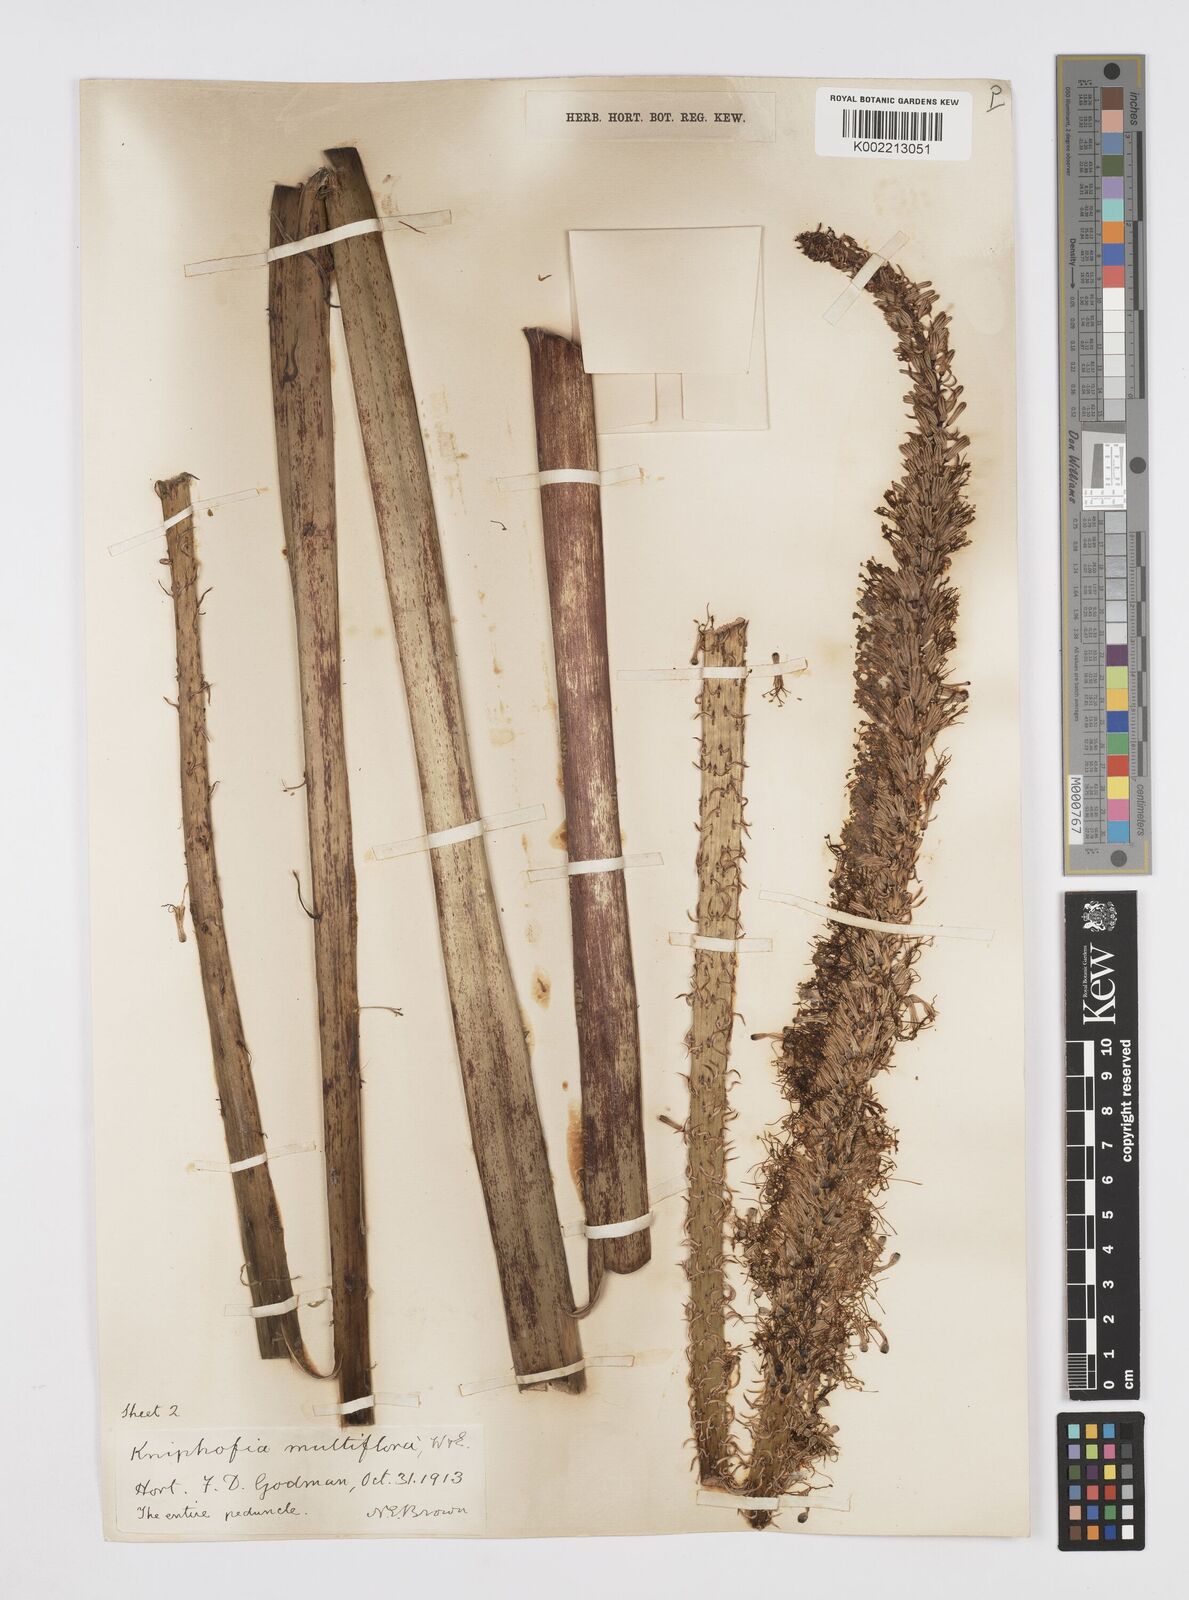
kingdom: Plantae
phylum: Tracheophyta
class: Liliopsida
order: Asparagales
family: Asphodelaceae
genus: Kniphofia
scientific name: Kniphofia multiflora
